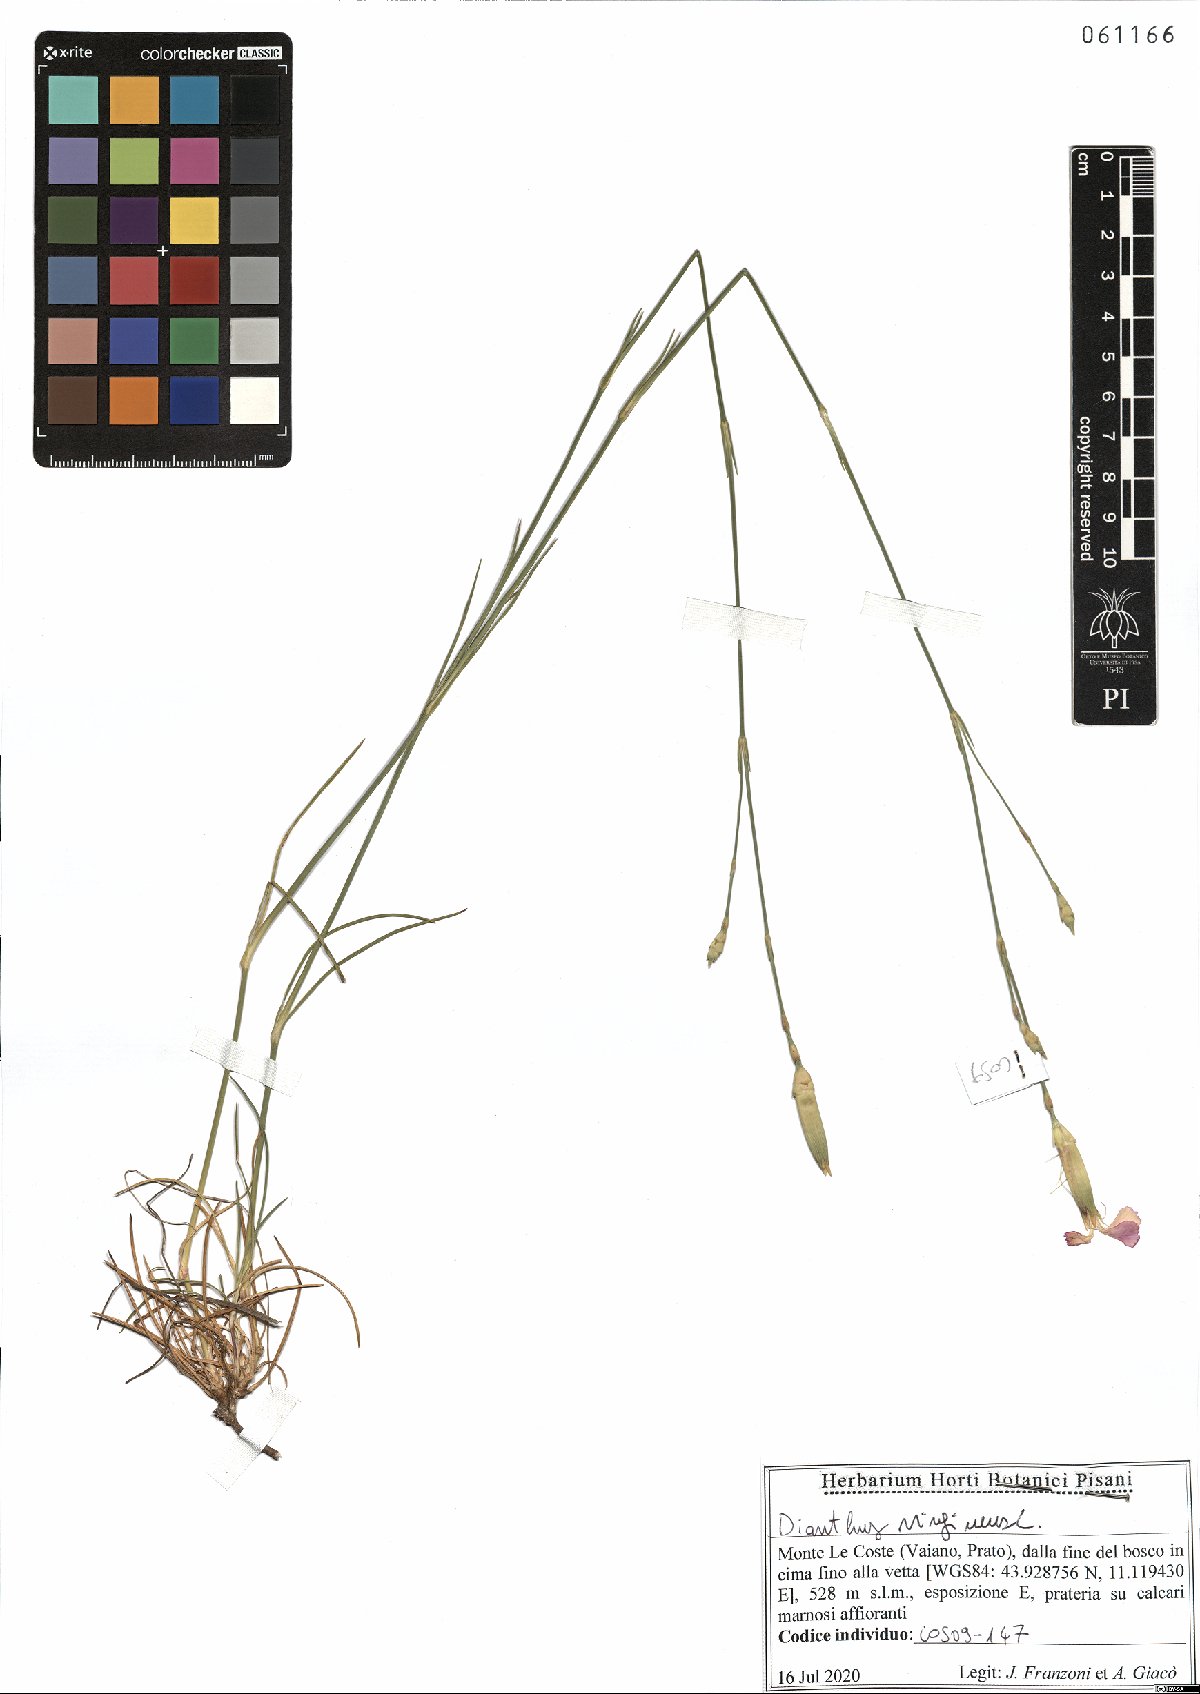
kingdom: Plantae
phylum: Tracheophyta
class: Magnoliopsida
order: Caryophyllales
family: Caryophyllaceae
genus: Dianthus
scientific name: Dianthus virgineus
